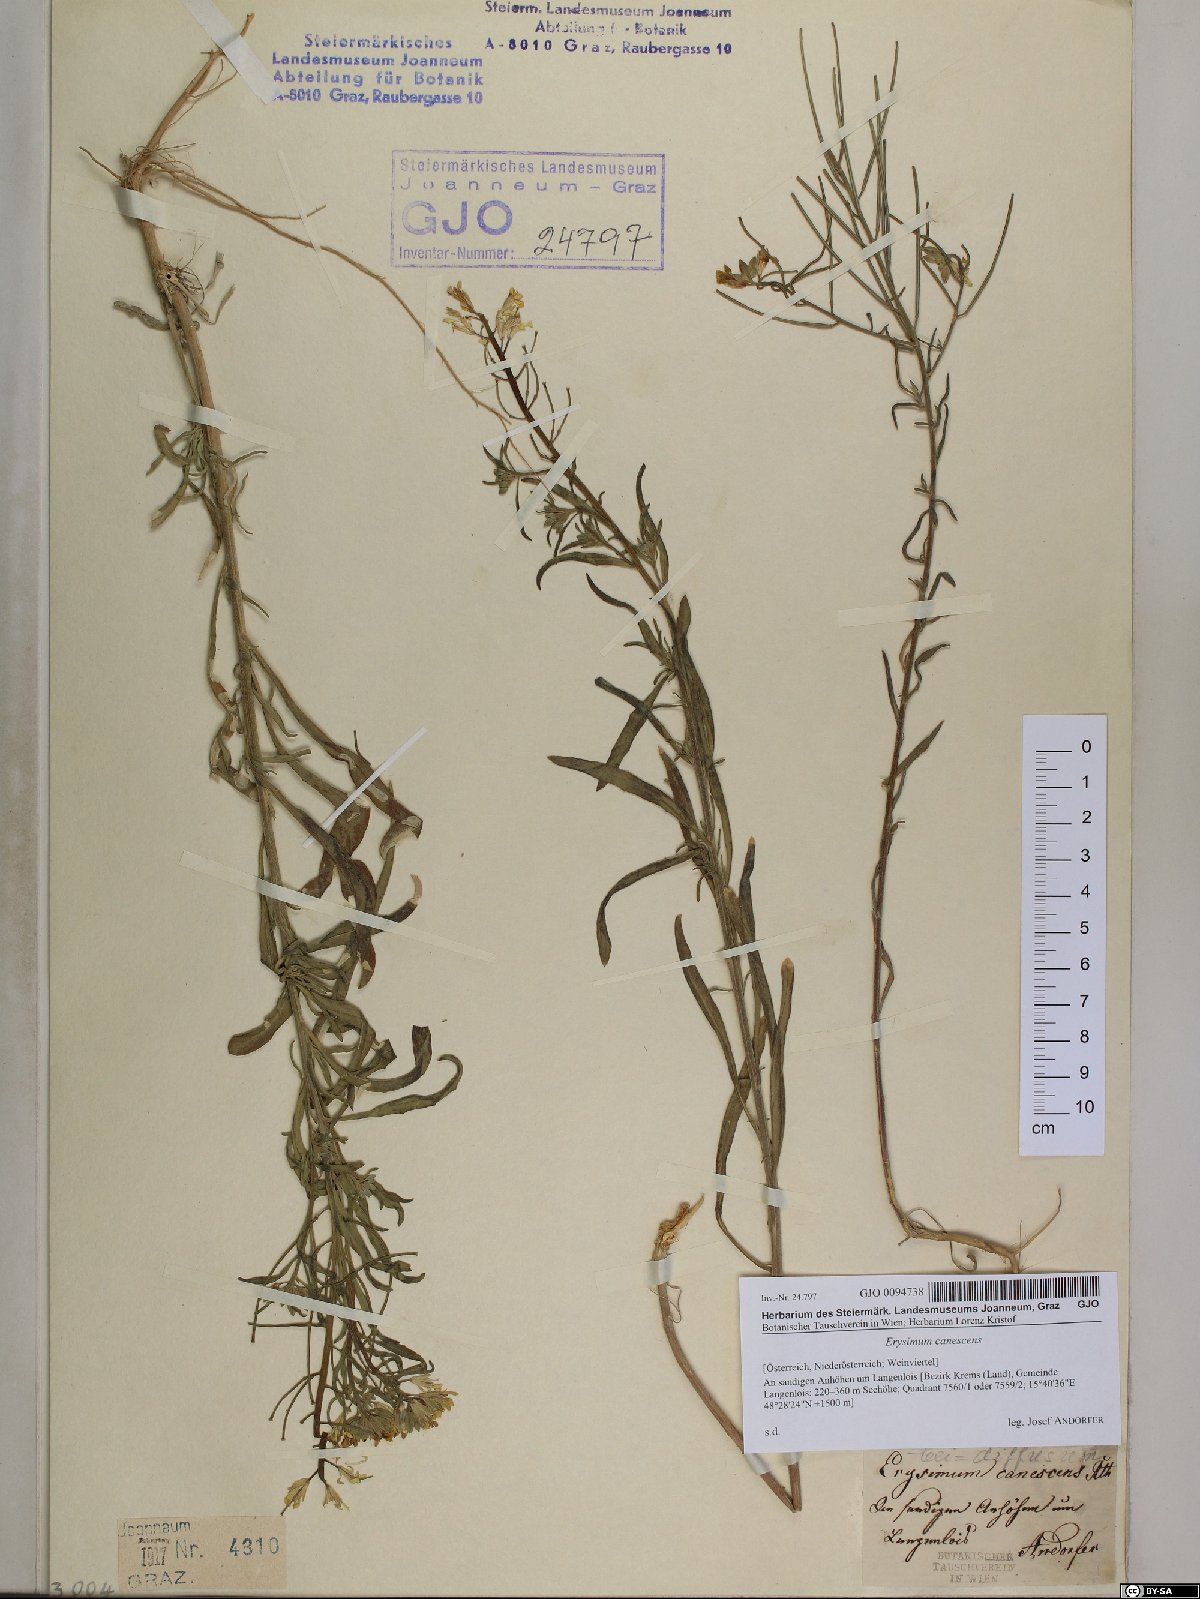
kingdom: Plantae
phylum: Tracheophyta
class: Magnoliopsida
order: Brassicales
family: Brassicaceae
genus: Erysimum
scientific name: Erysimum canescens
